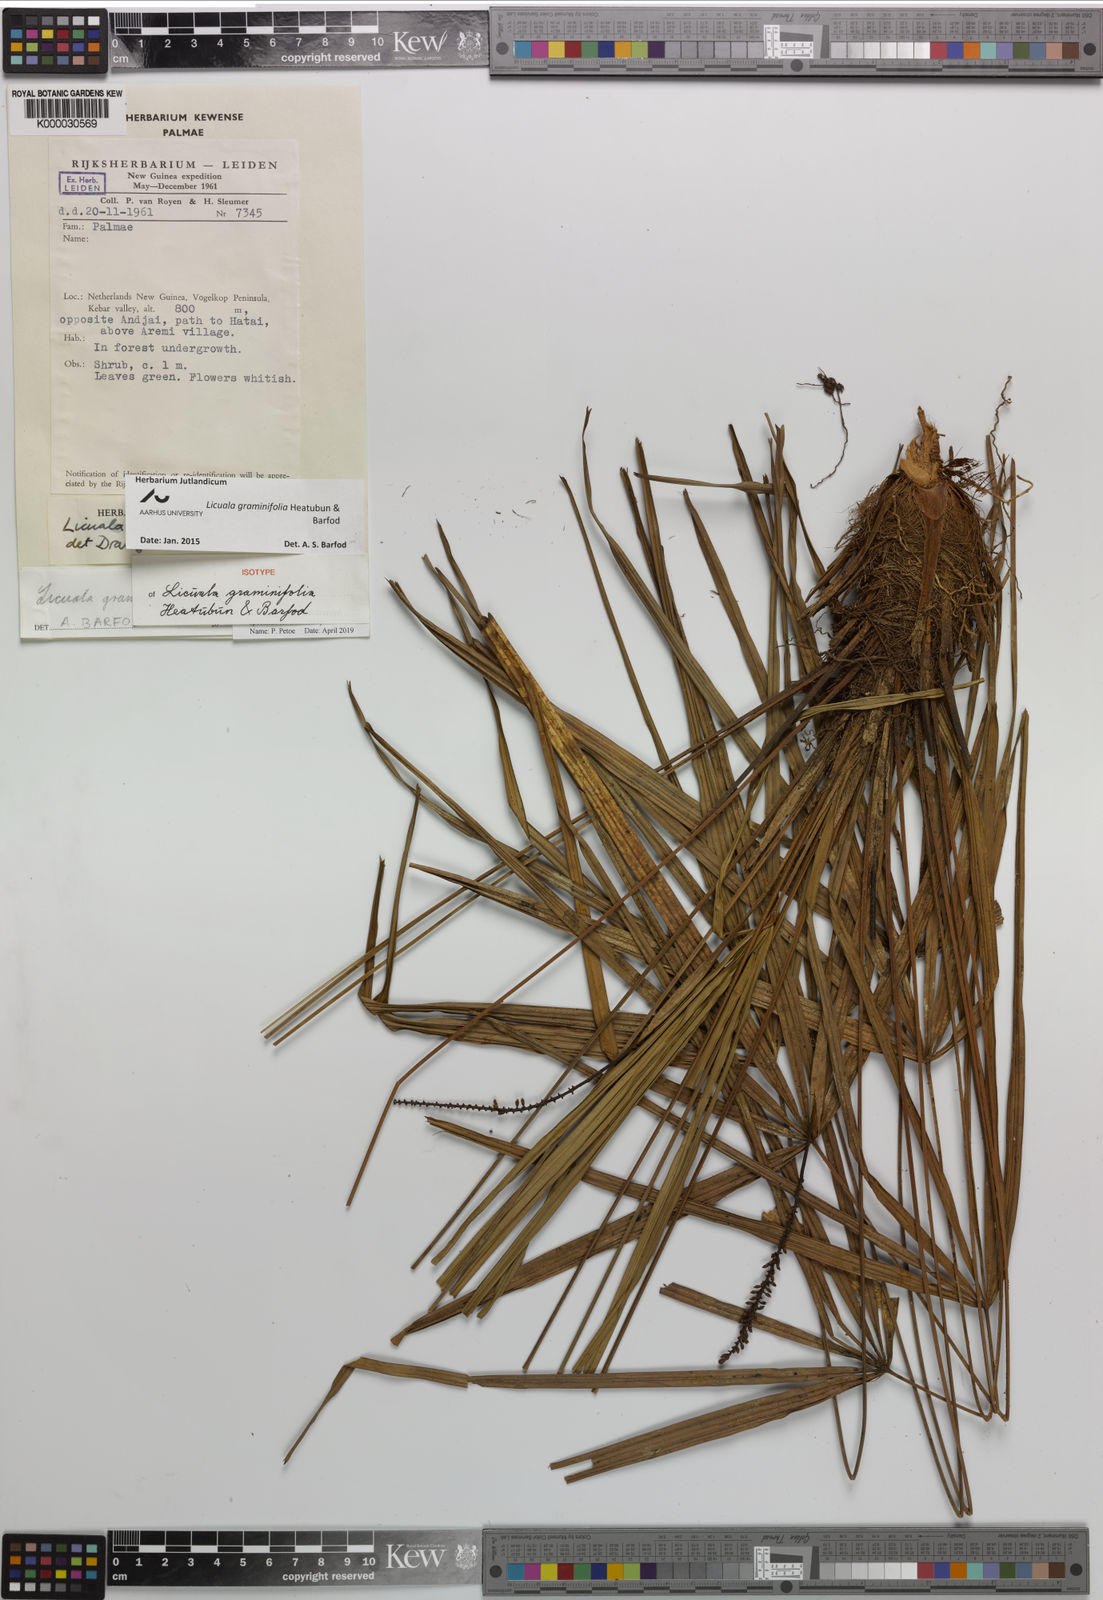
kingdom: Plantae
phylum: Tracheophyta
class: Liliopsida
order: Arecales
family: Arecaceae
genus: Licuala
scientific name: Licuala graminifolia
